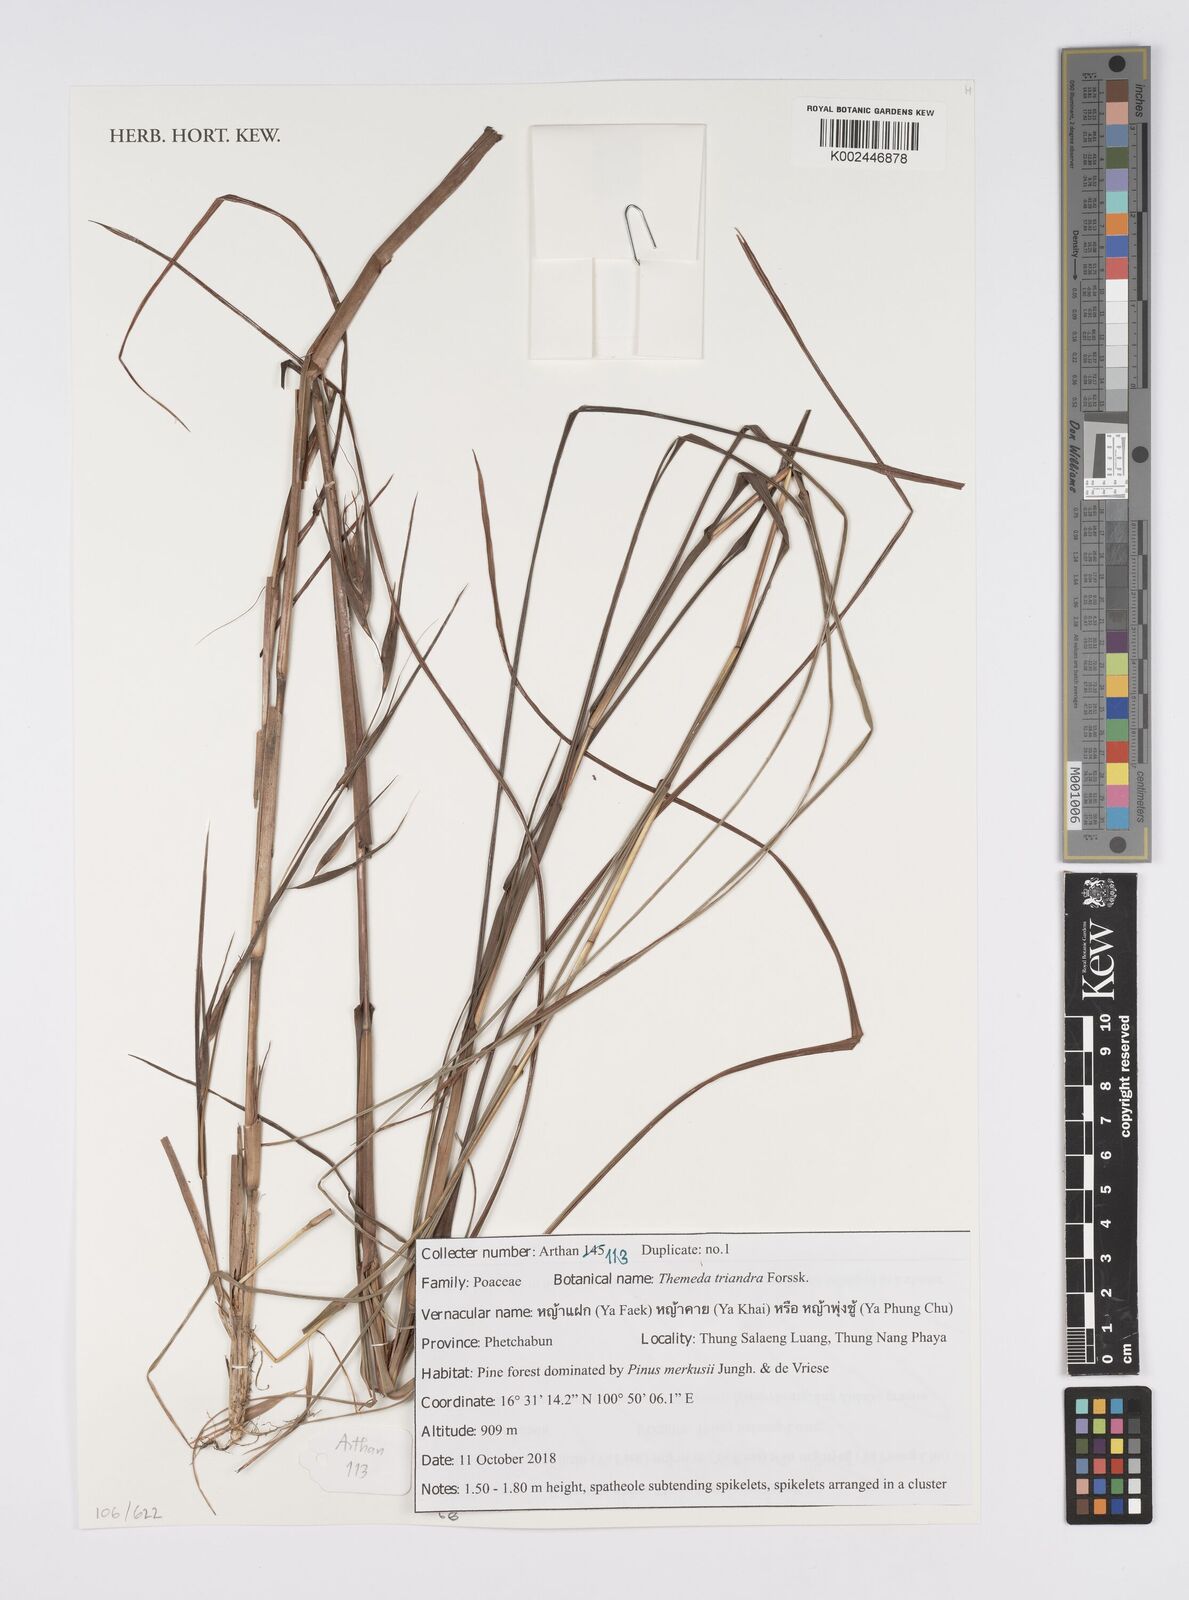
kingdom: Plantae
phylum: Tracheophyta
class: Liliopsida
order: Poales
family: Poaceae
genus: Themeda
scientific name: Themeda triandra
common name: Kangaroo grass
